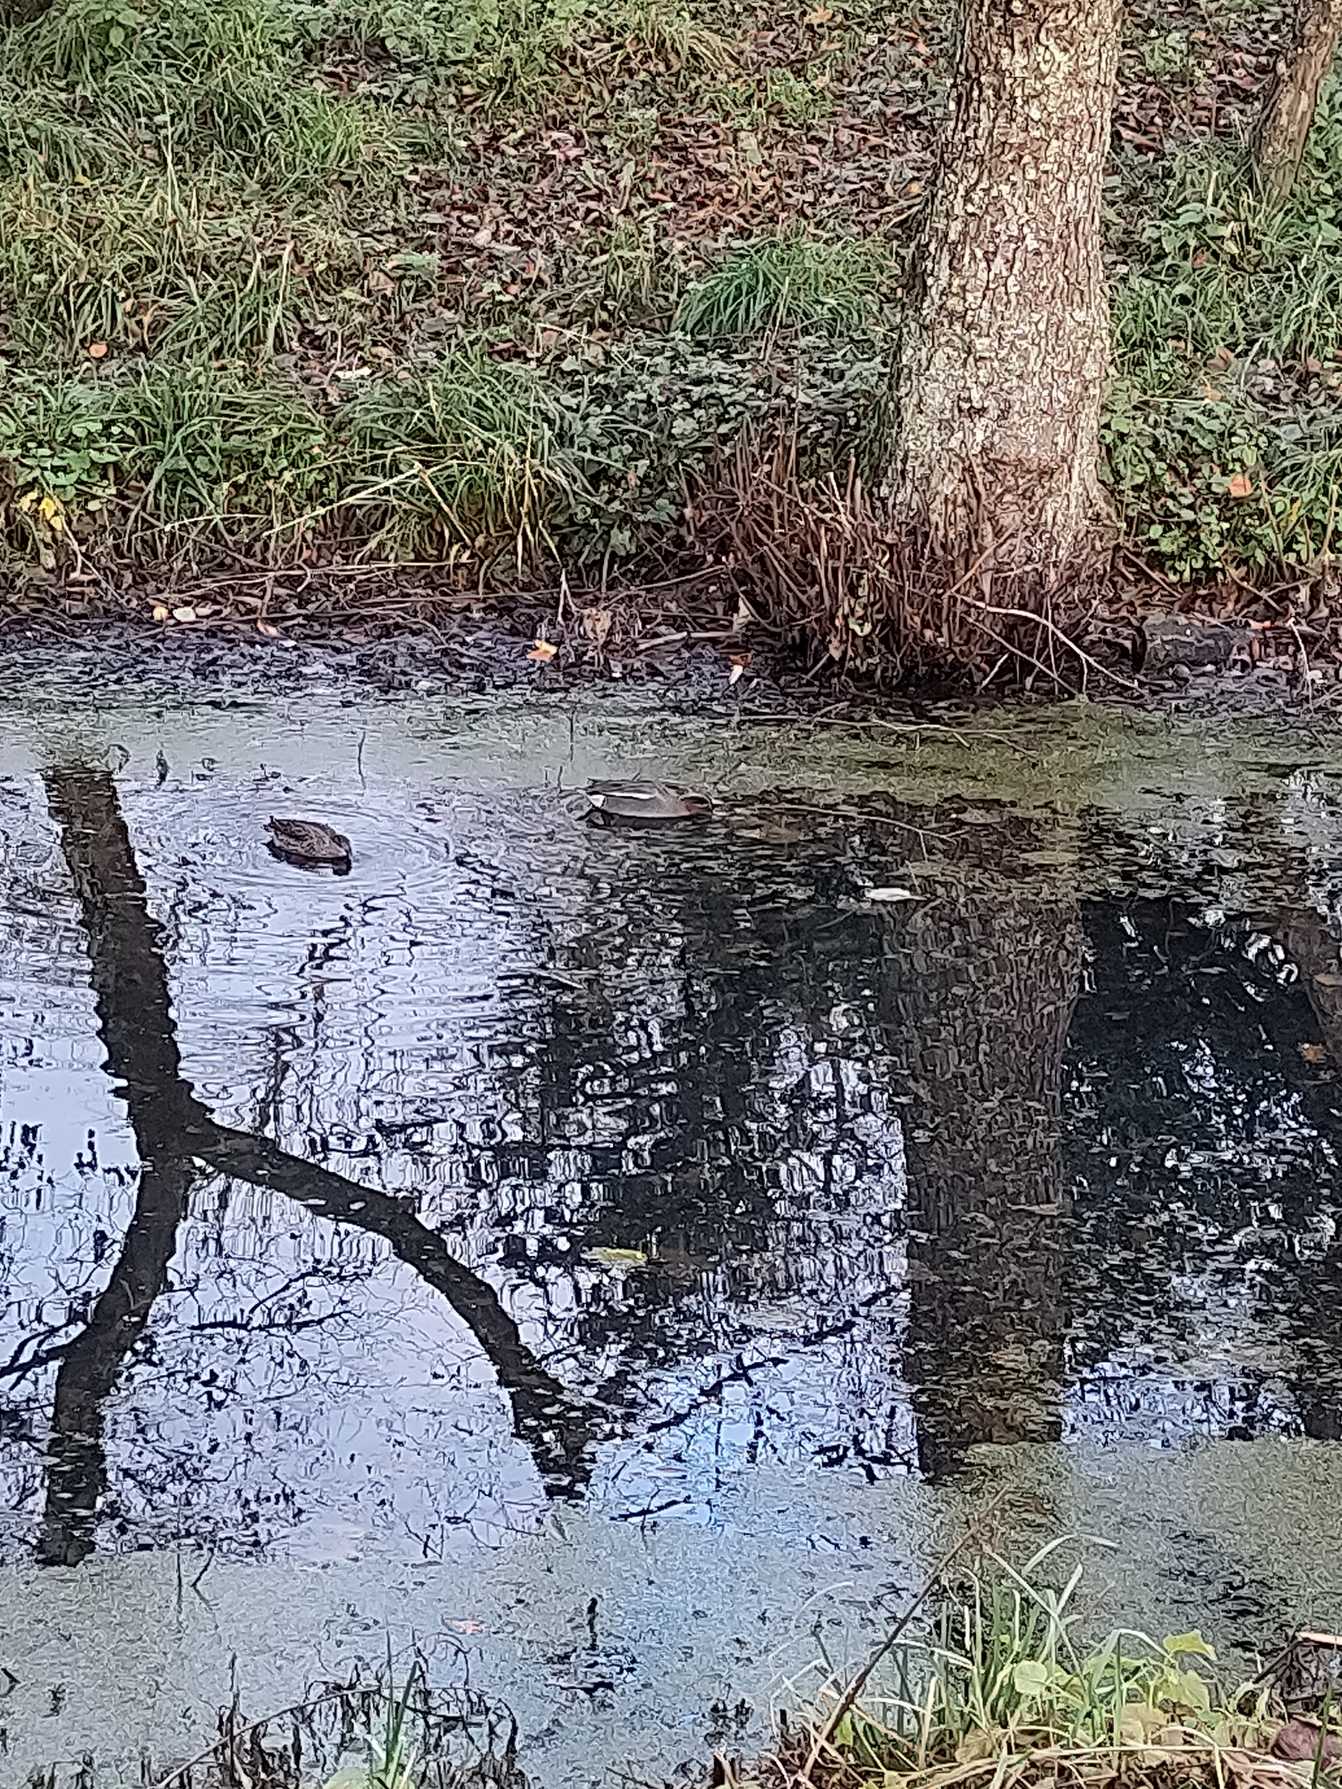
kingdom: Animalia
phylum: Chordata
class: Aves
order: Anseriformes
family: Anatidae
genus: Anas
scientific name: Anas crecca
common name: Krikand
